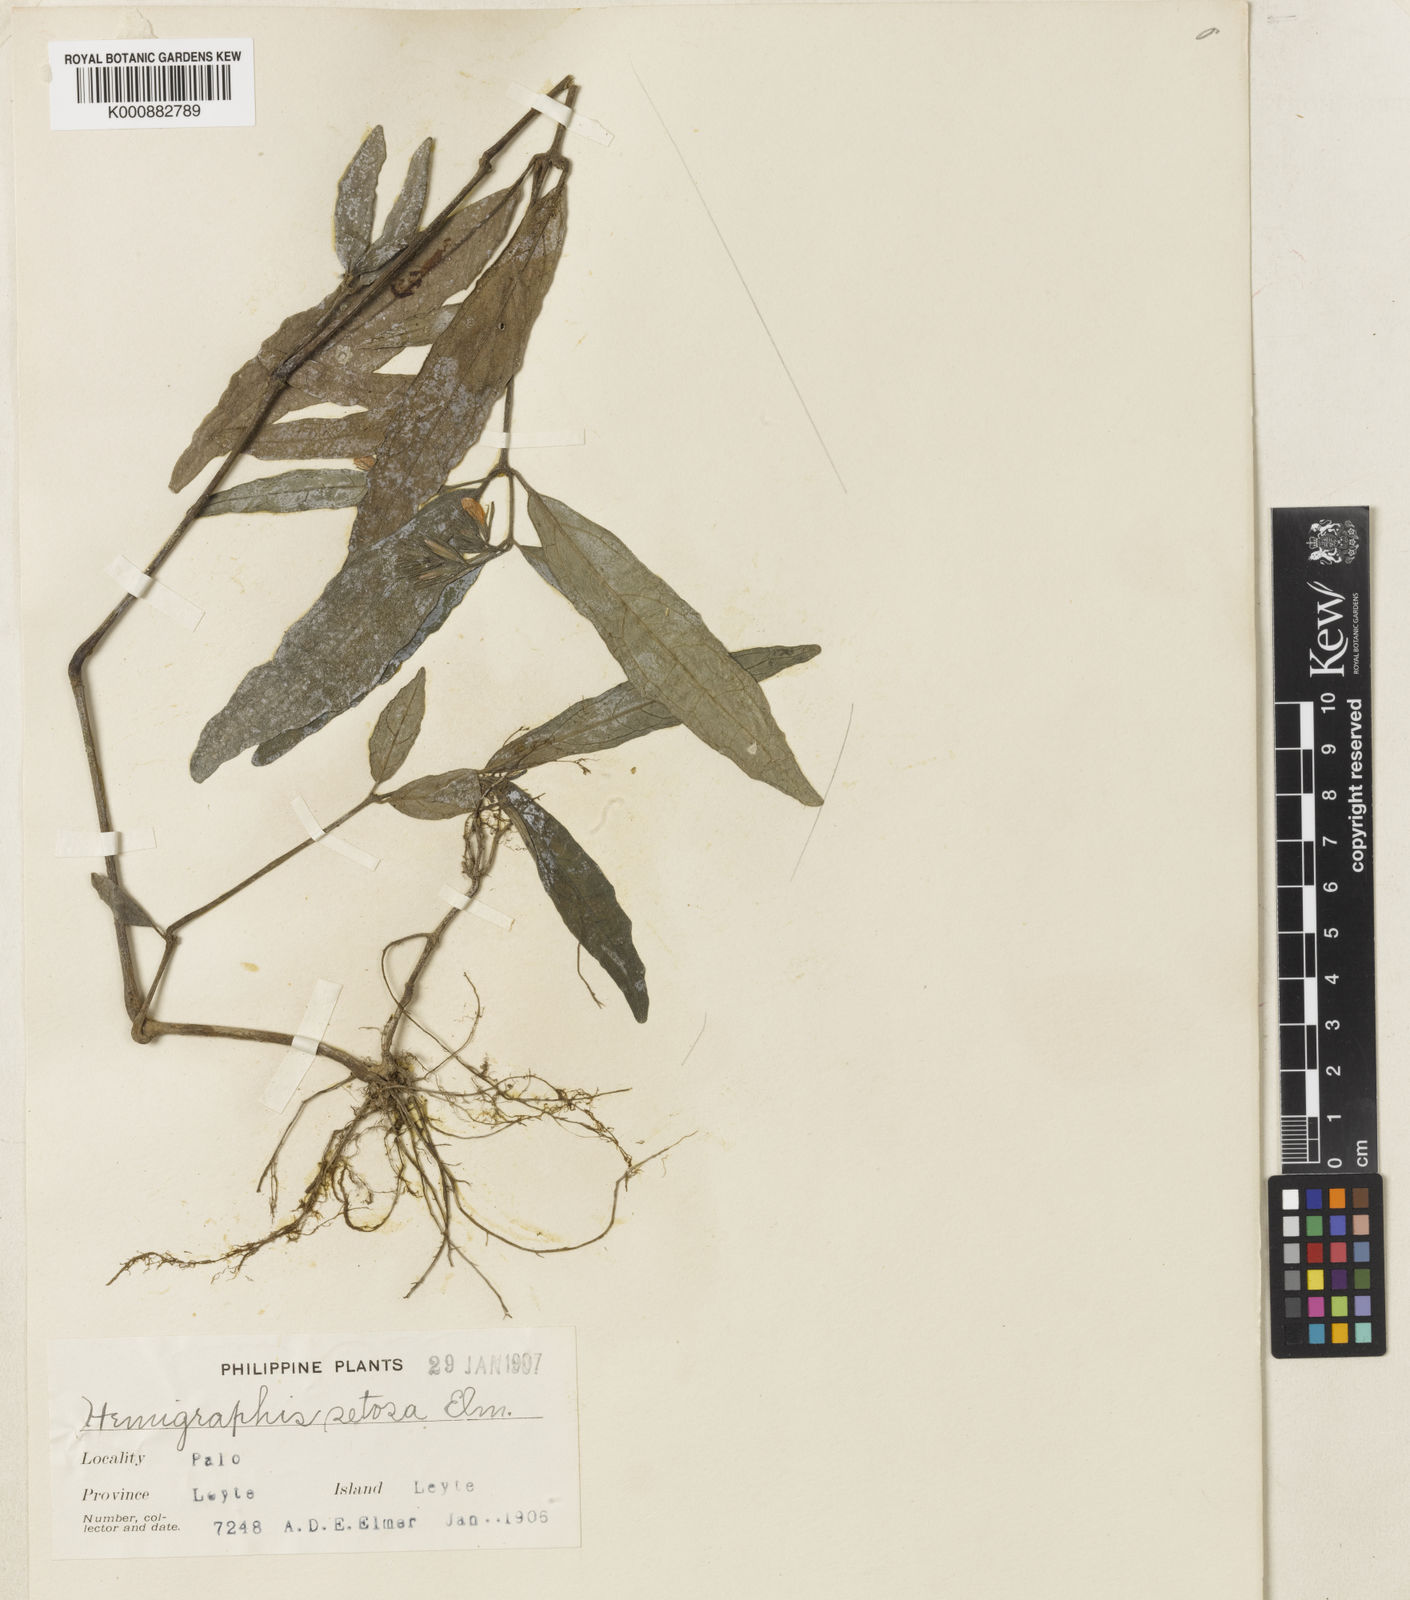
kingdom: Plantae
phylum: Tracheophyta
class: Magnoliopsida
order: Lamiales
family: Acanthaceae
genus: Strobilanthes
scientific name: Strobilanthes elmeri
